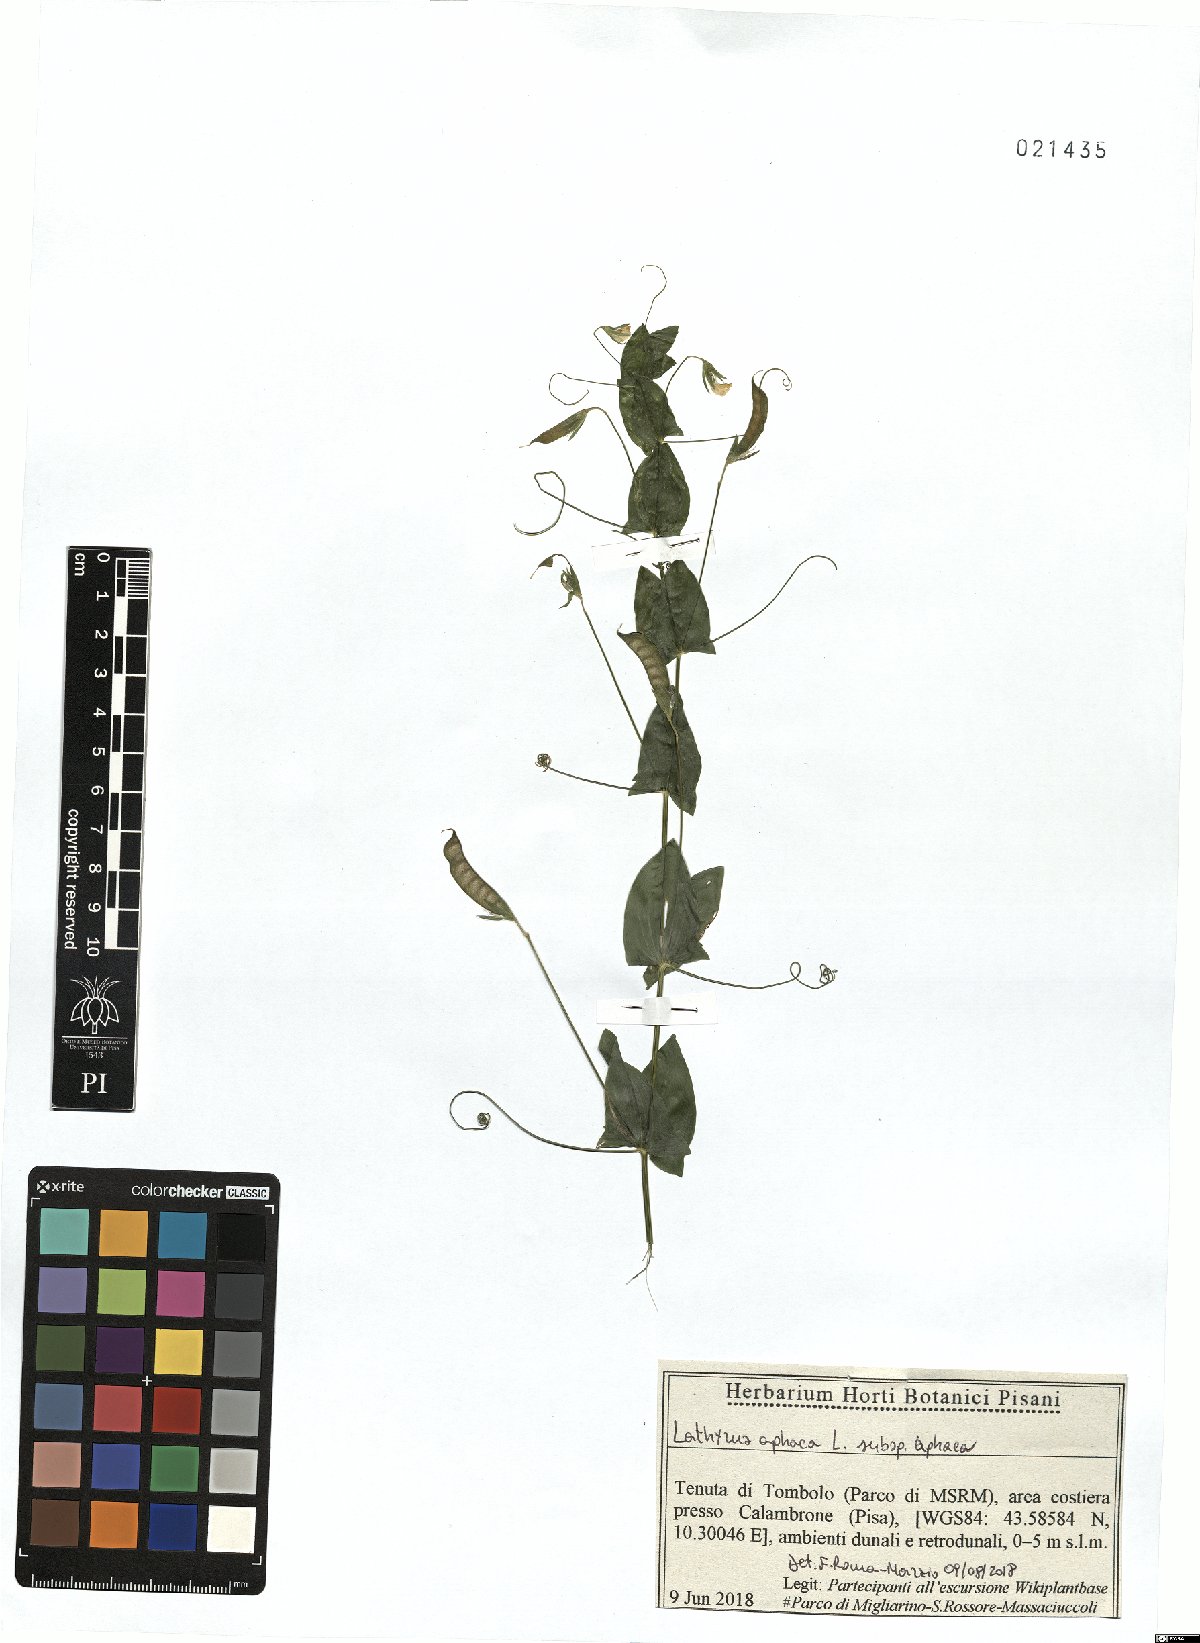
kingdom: Plantae
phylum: Tracheophyta
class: Magnoliopsida
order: Fabales
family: Fabaceae
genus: Lathyrus
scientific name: Lathyrus aphaca
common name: Yellow vetchling
